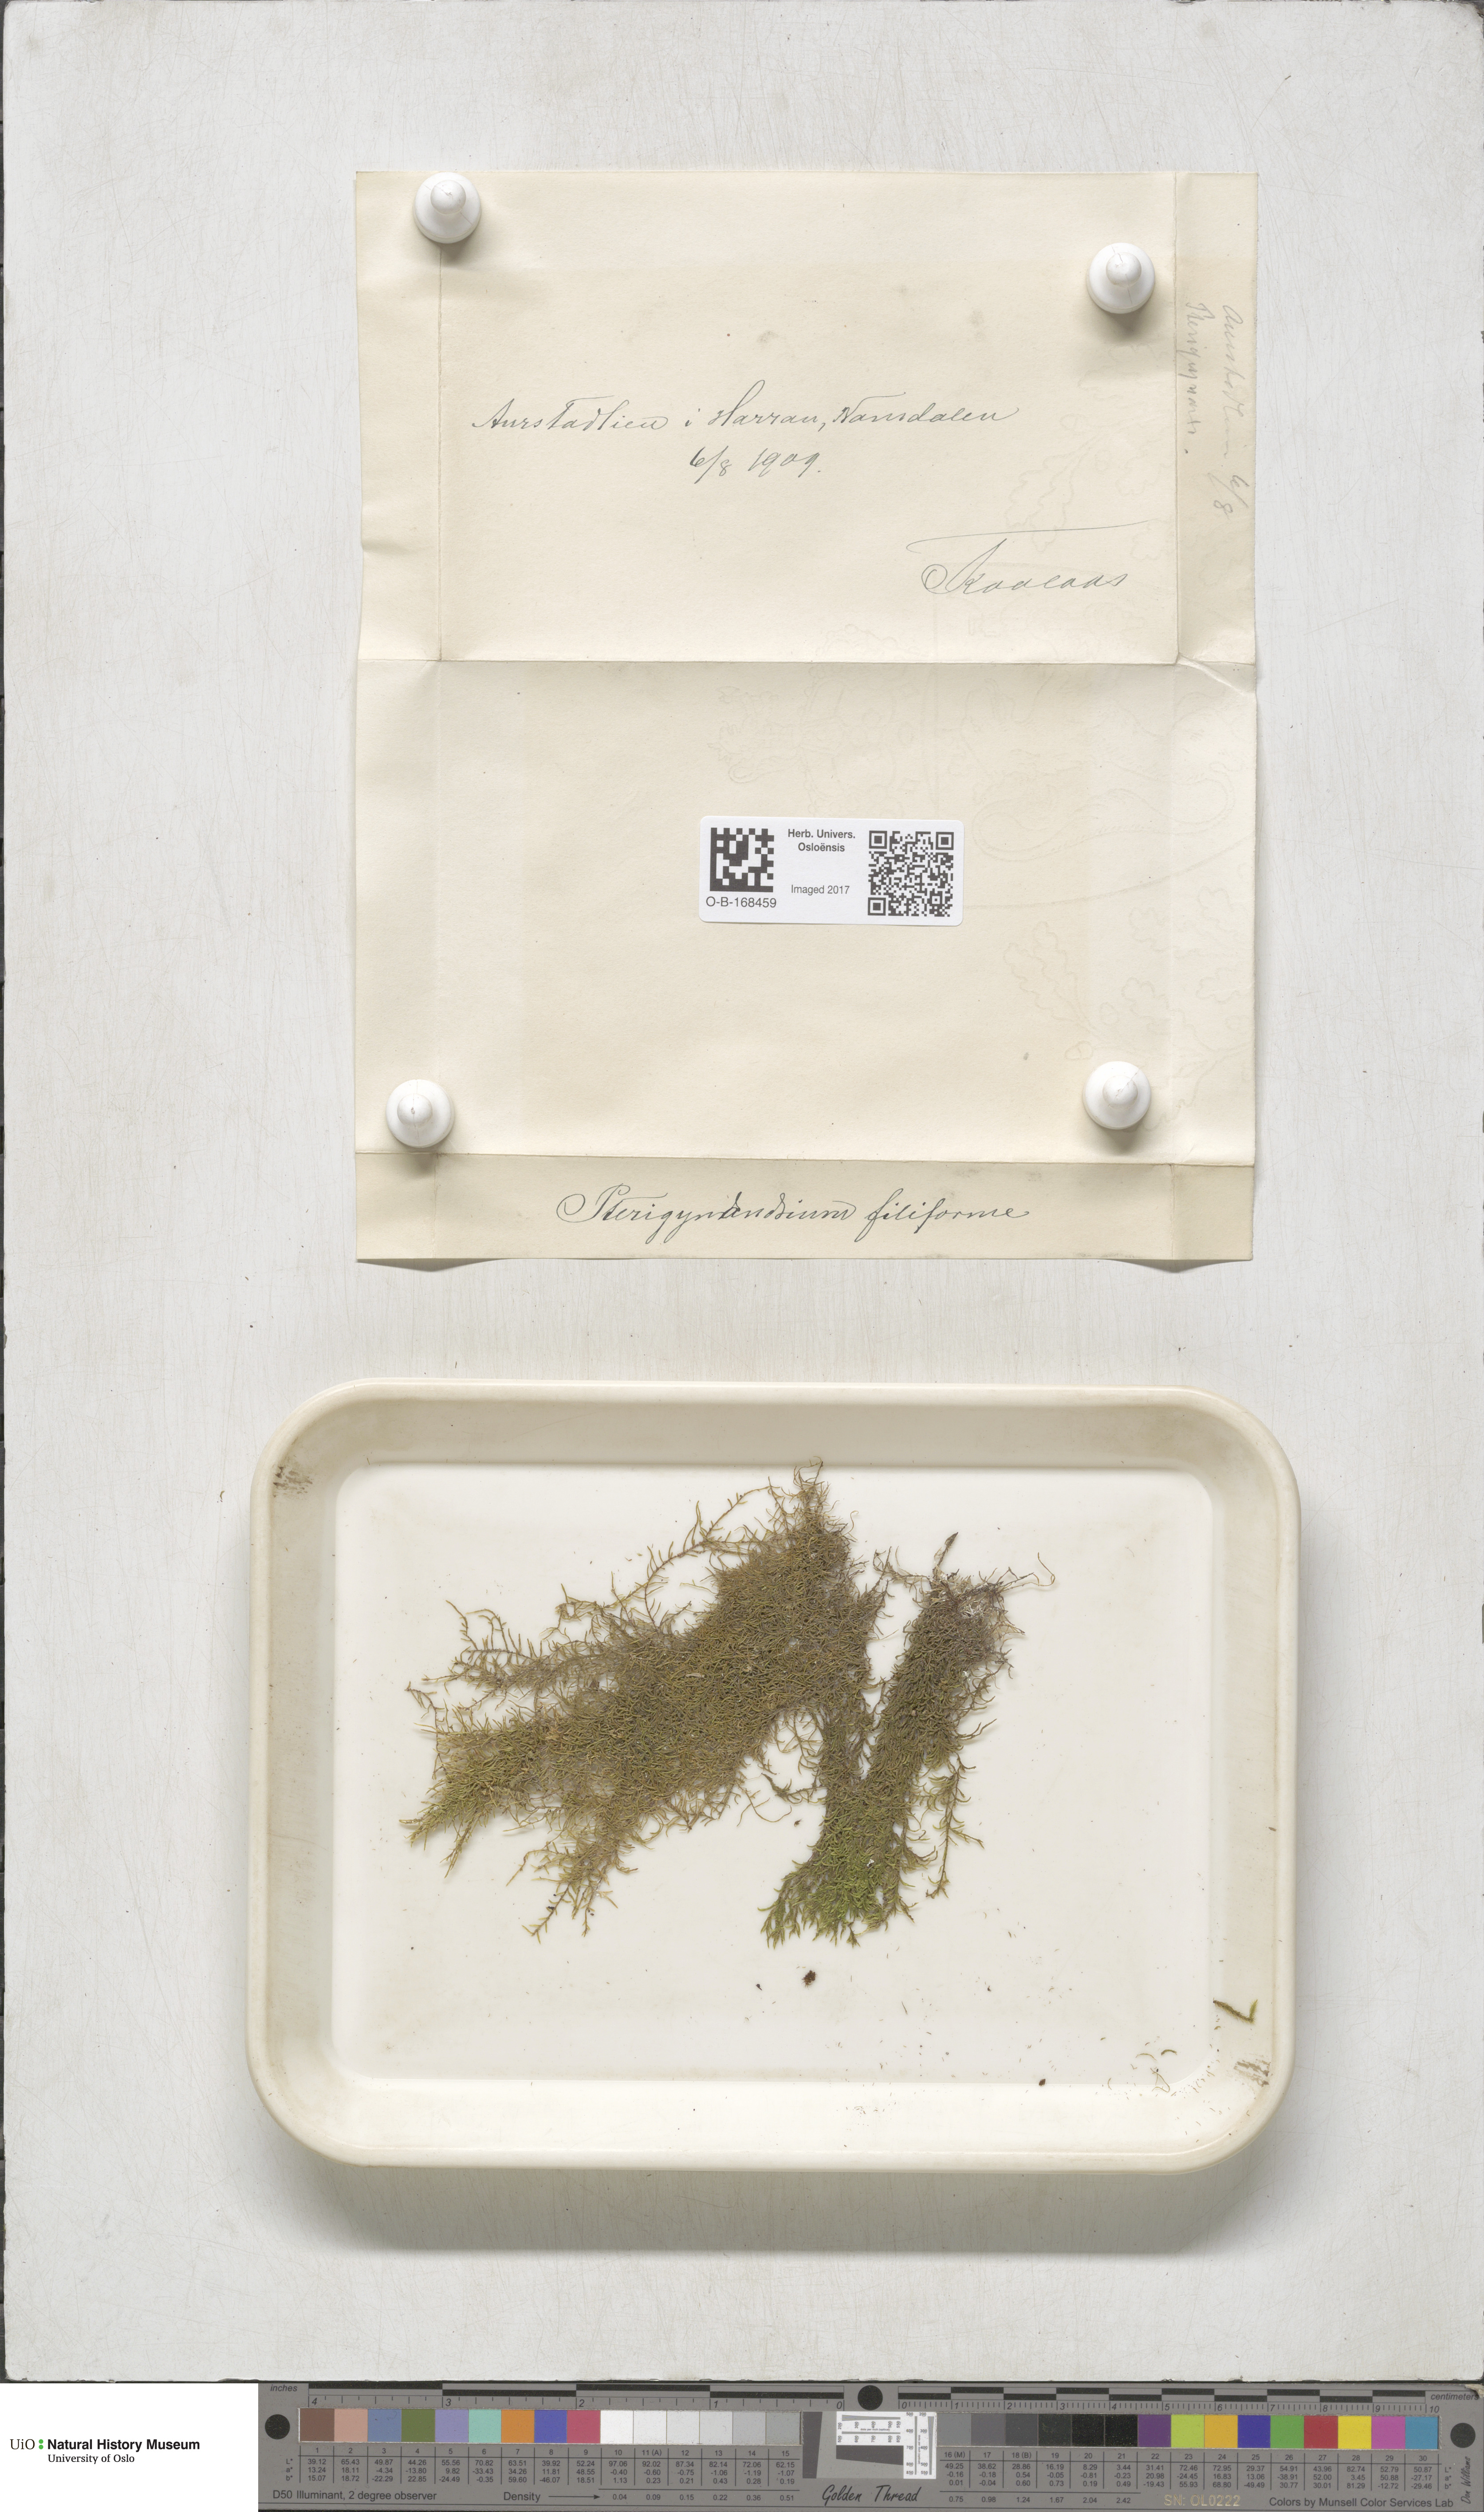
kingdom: Plantae
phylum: Bryophyta
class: Bryopsida
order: Hypnales
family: Pterigynandraceae
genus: Pterigynandrum
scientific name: Pterigynandrum filiforme
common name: Capillary wing moss
